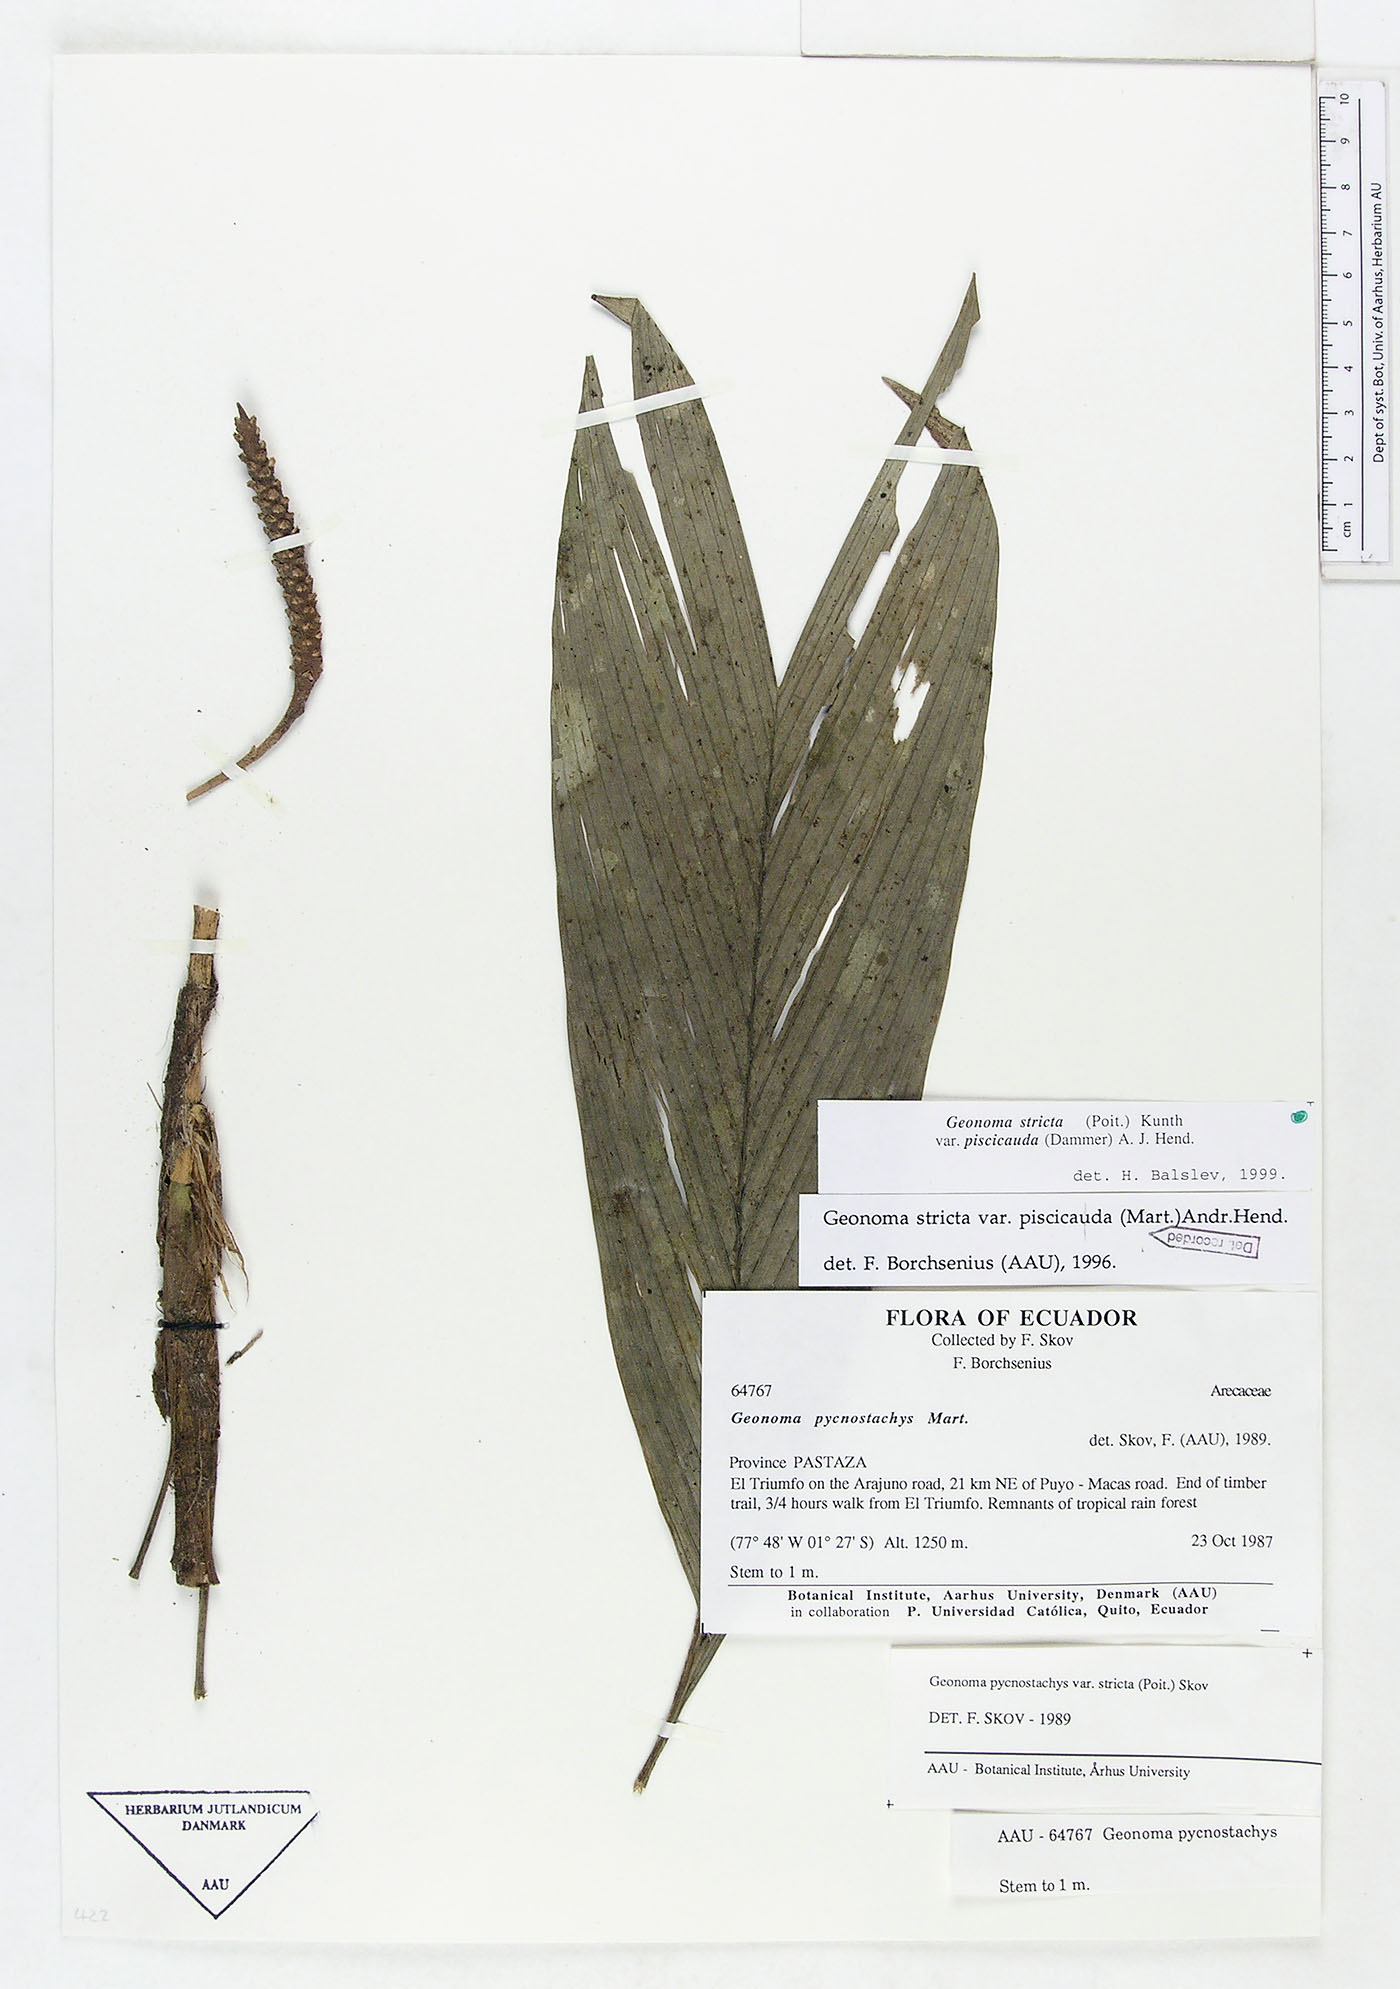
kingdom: Plantae
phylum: Tracheophyta
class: Liliopsida
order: Arecales
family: Arecaceae
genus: Geonoma
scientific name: Geonoma stricta
